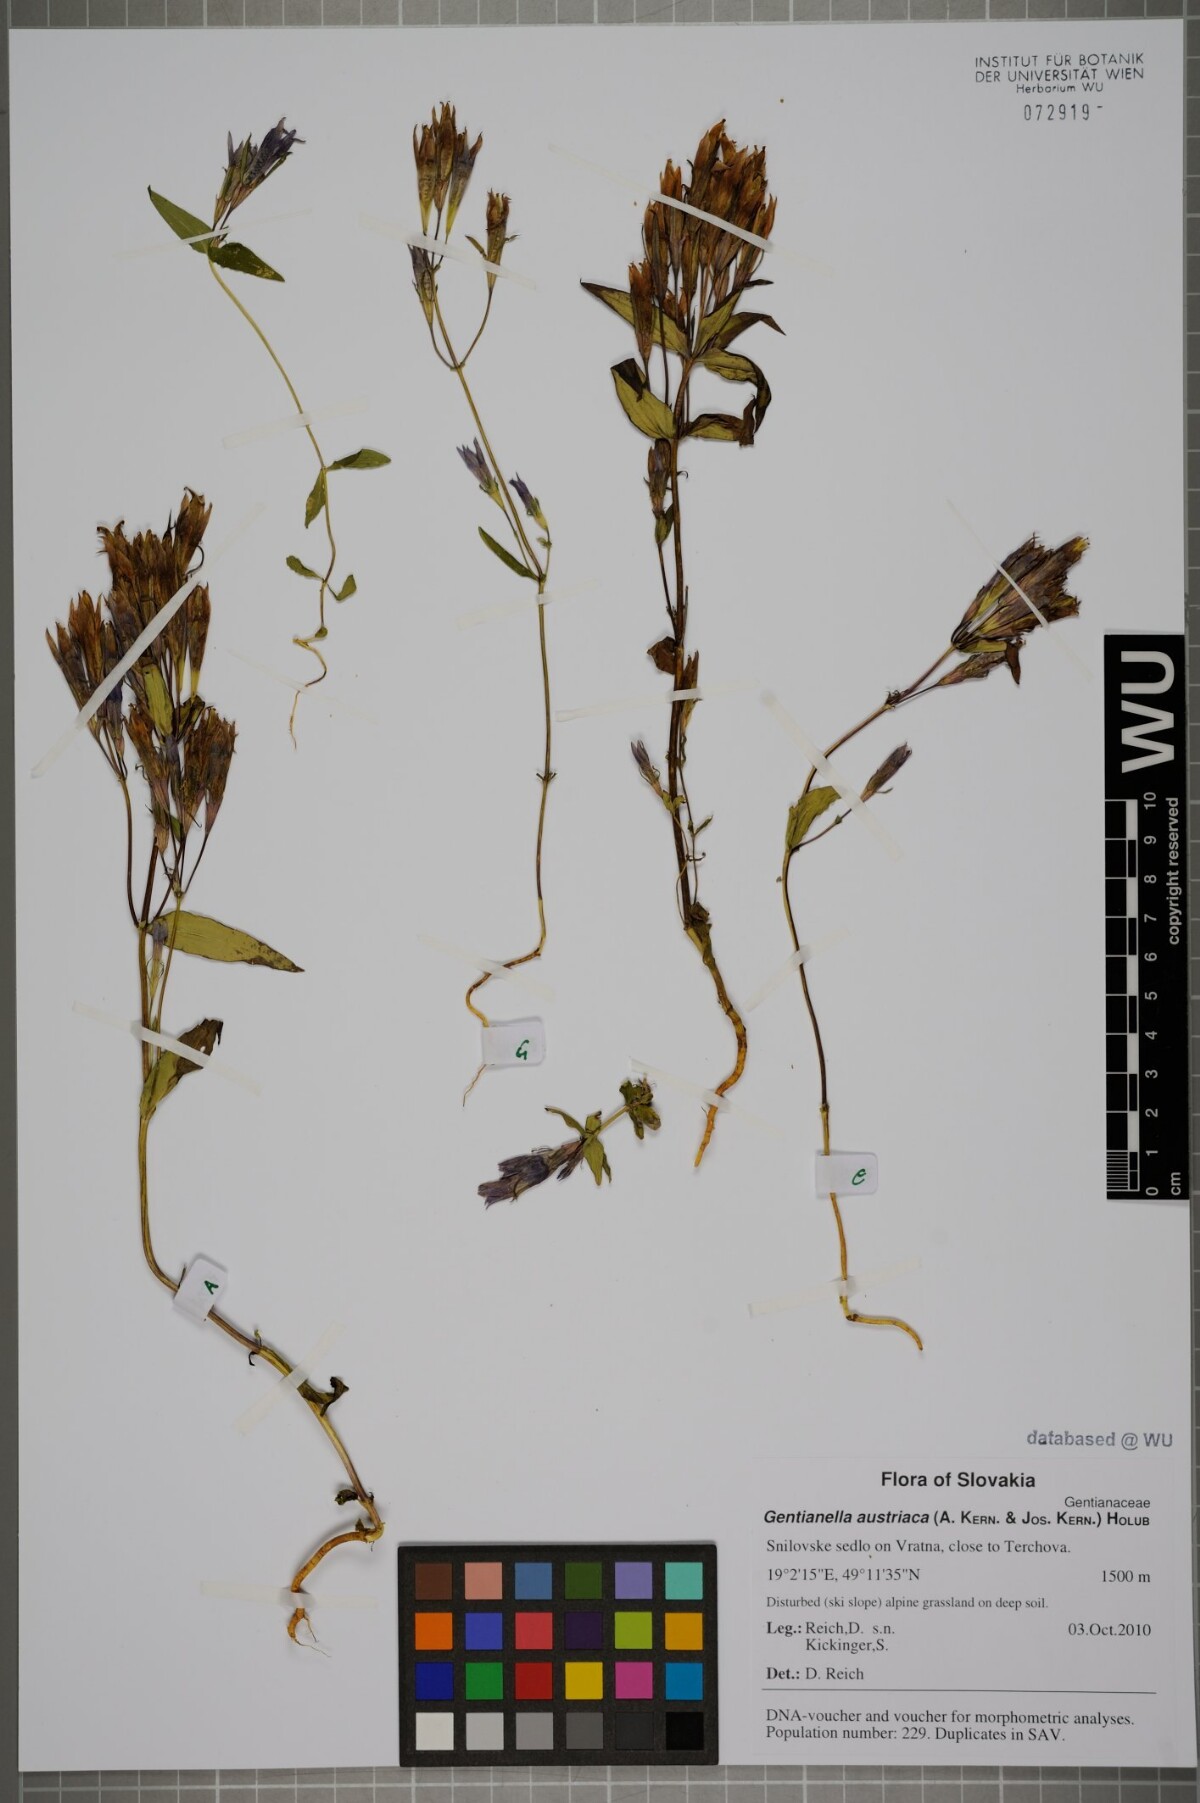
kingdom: Plantae
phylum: Tracheophyta
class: Magnoliopsida
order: Gentianales
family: Gentianaceae
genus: Gentianella
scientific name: Gentianella austriaca
